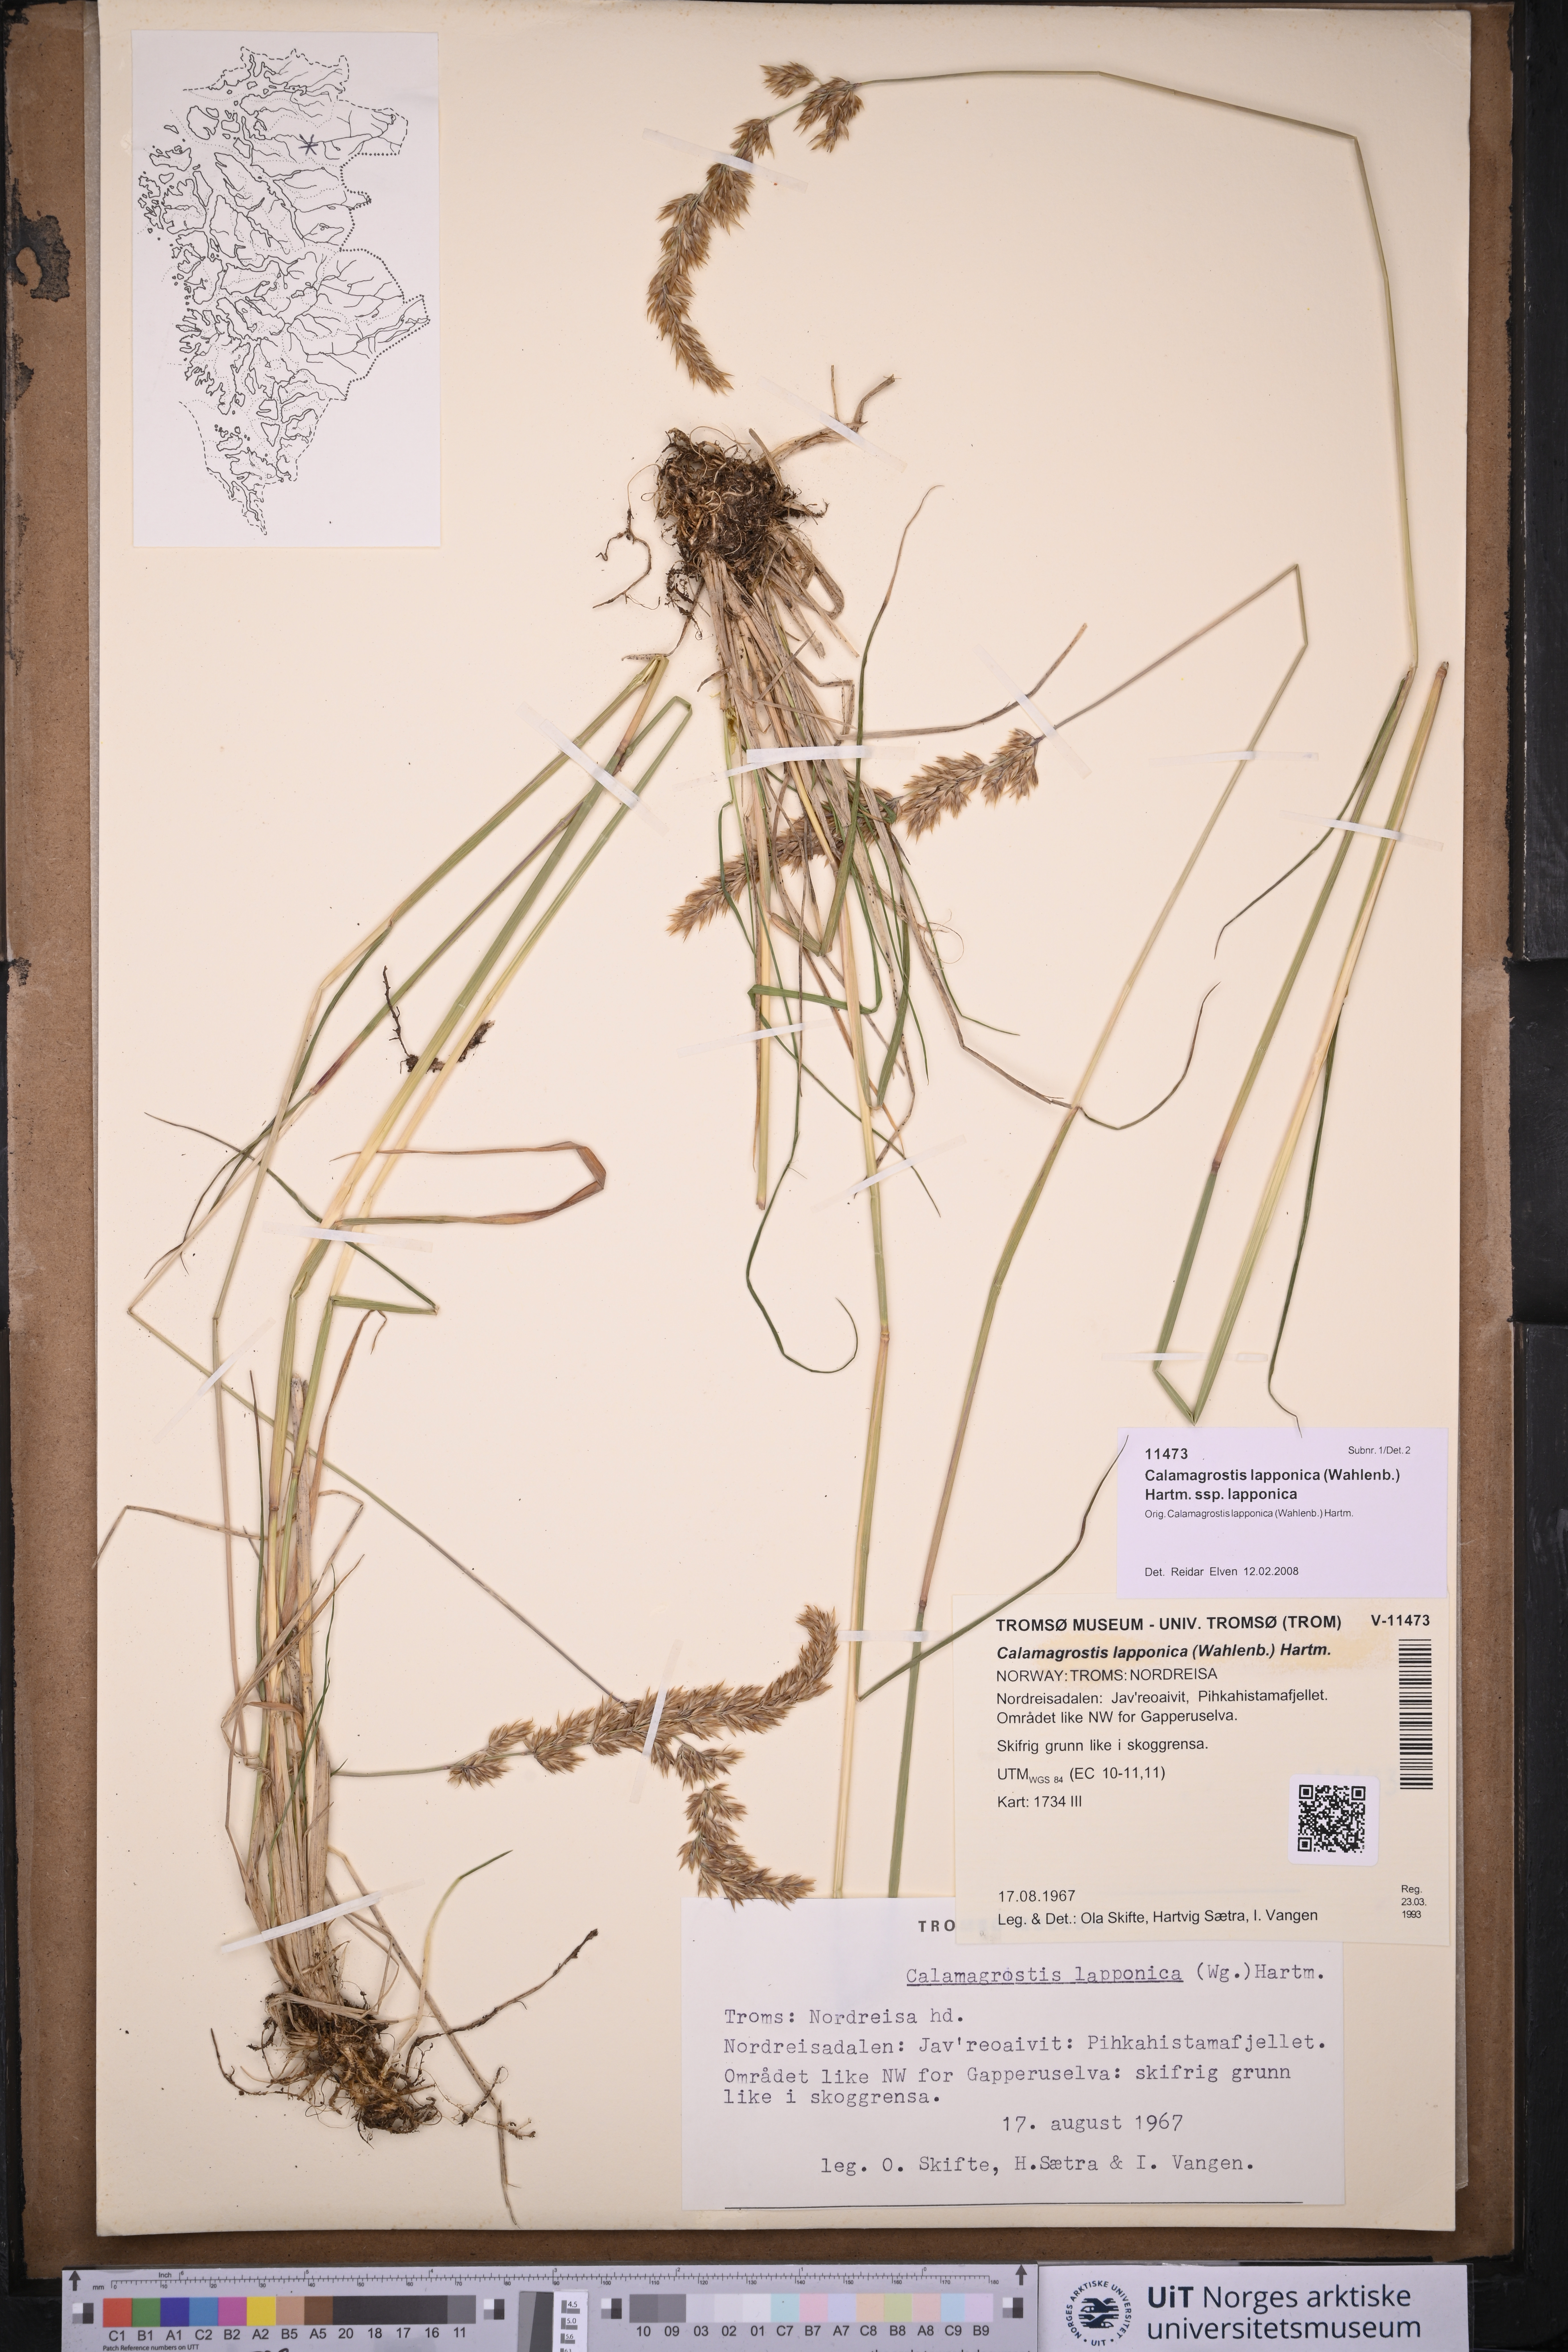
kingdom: Plantae
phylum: Tracheophyta
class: Liliopsida
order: Poales
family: Poaceae
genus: Calamagrostis
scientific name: Calamagrostis lapponica
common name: Lapland reedgrass
